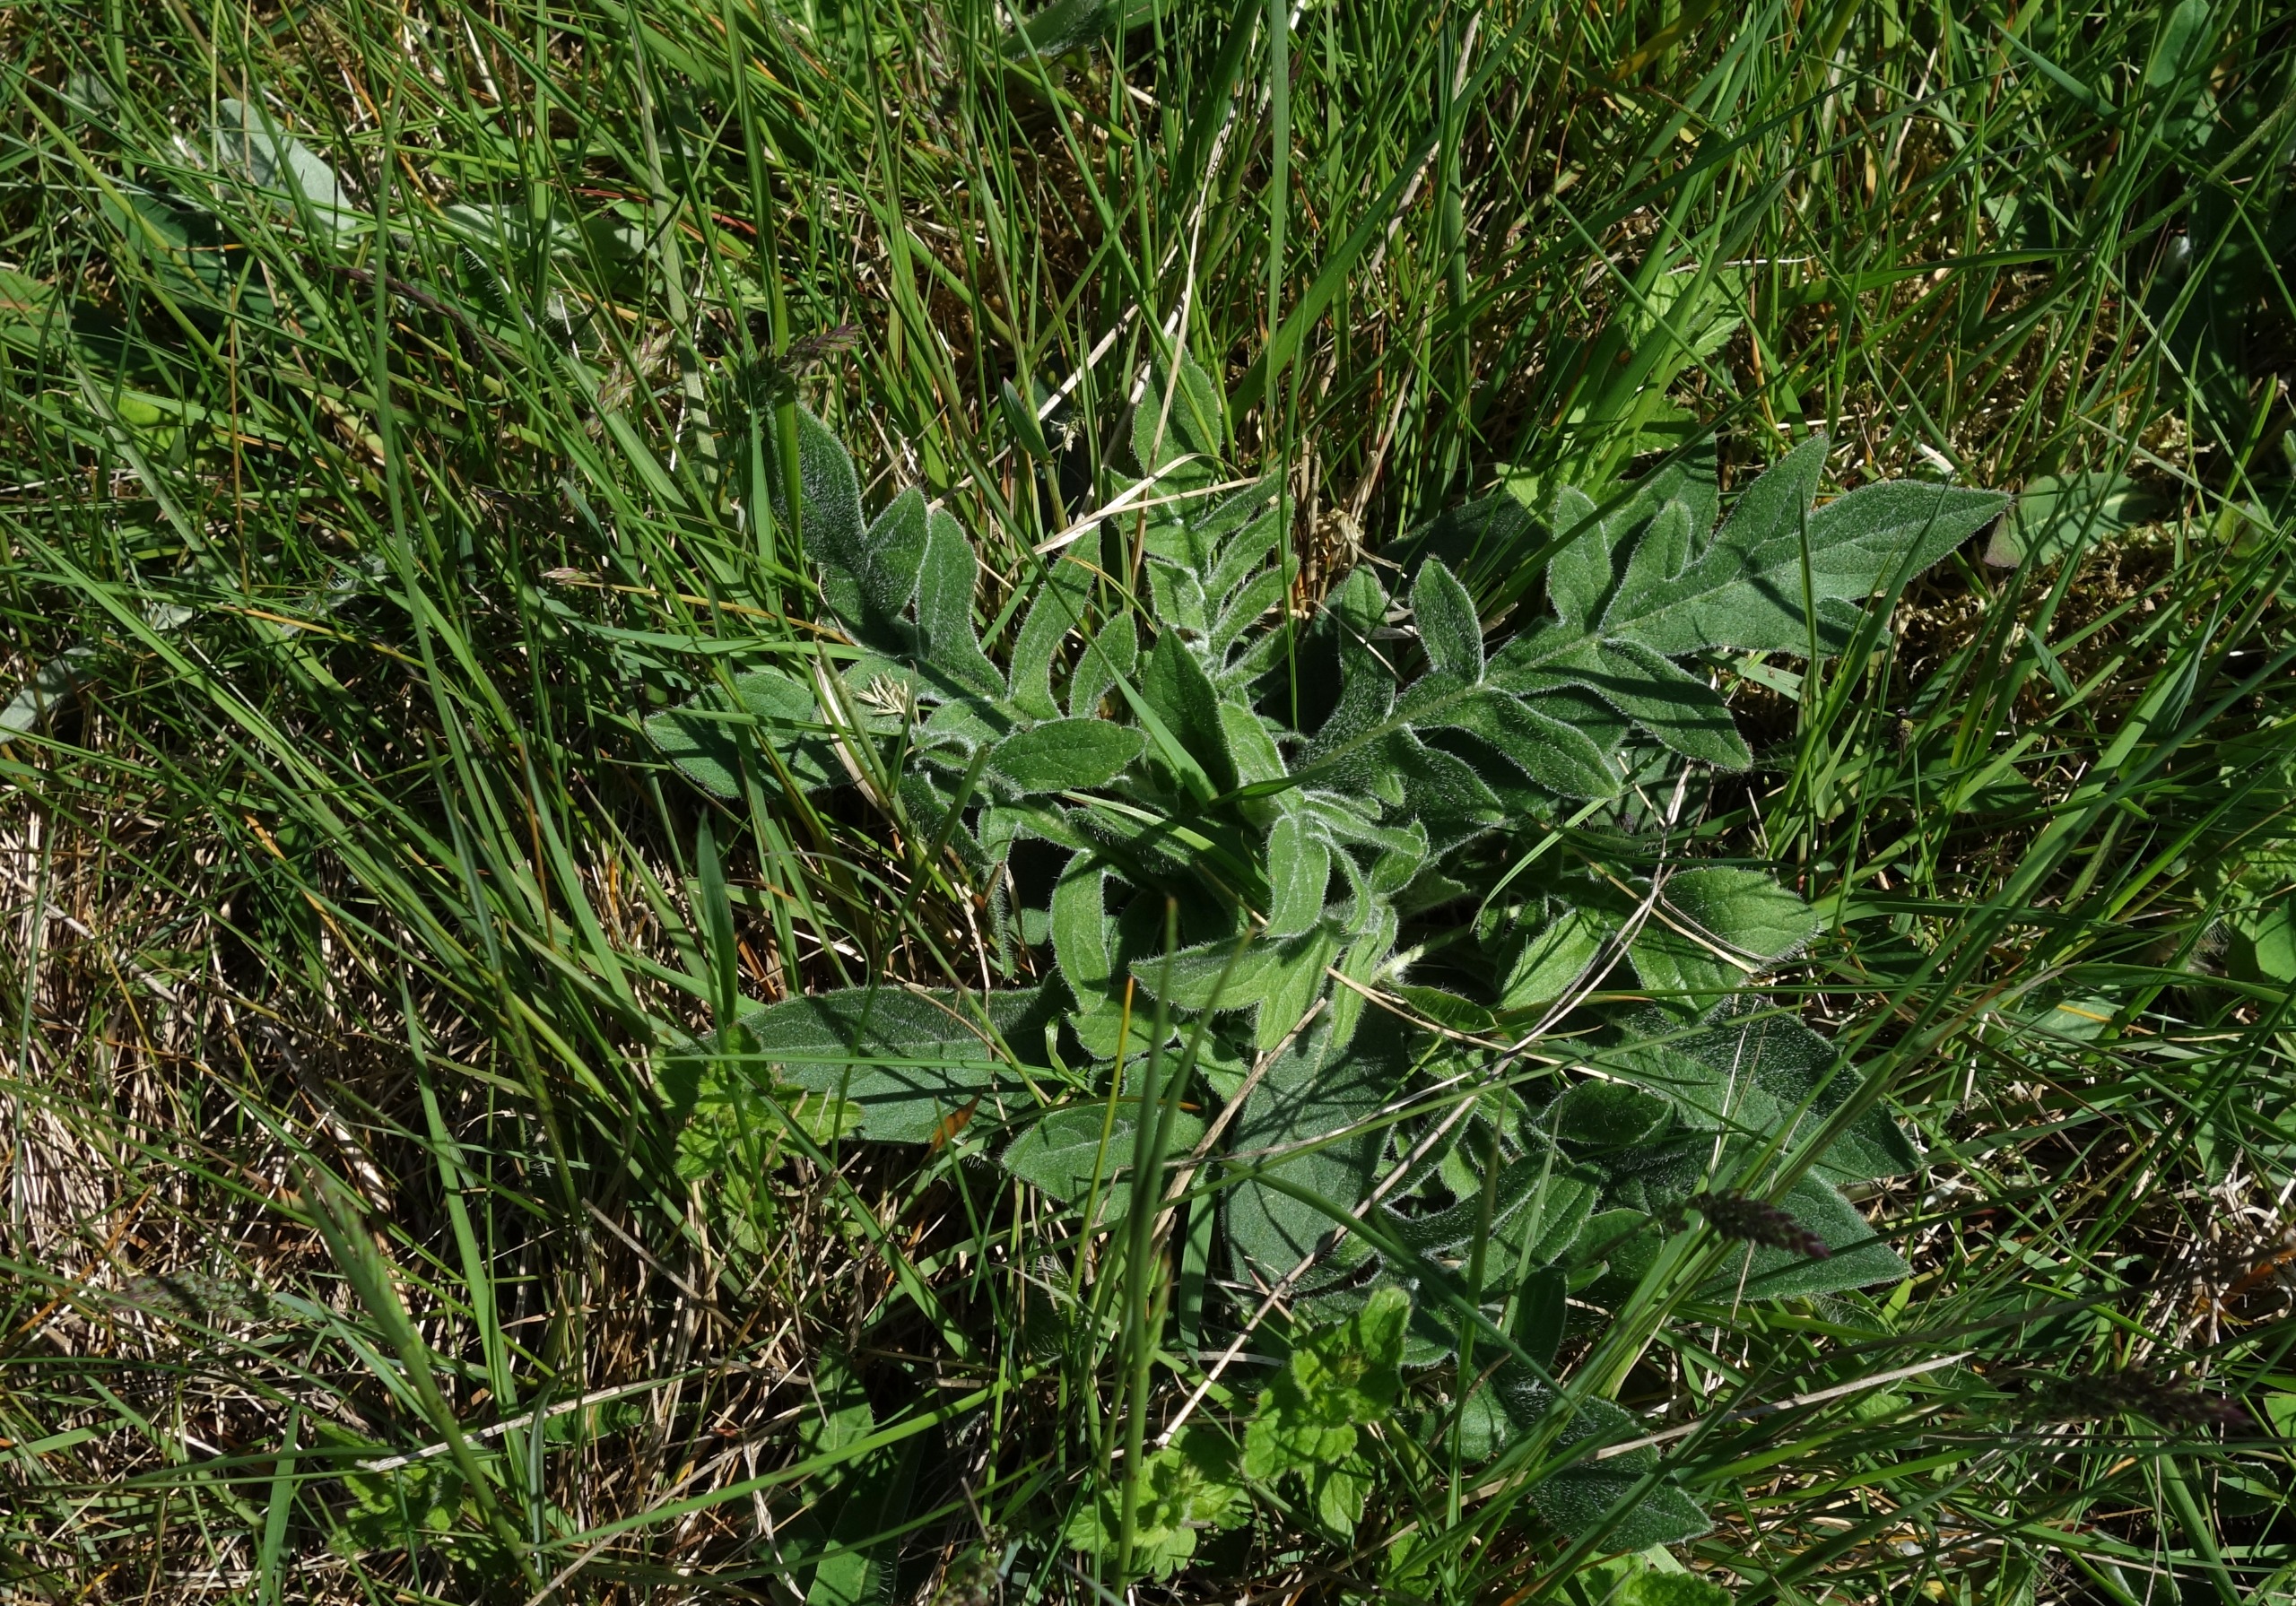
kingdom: Plantae
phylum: Tracheophyta
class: Magnoliopsida
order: Dipsacales
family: Caprifoliaceae
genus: Knautia
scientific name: Knautia arvensis
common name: Blåhat
